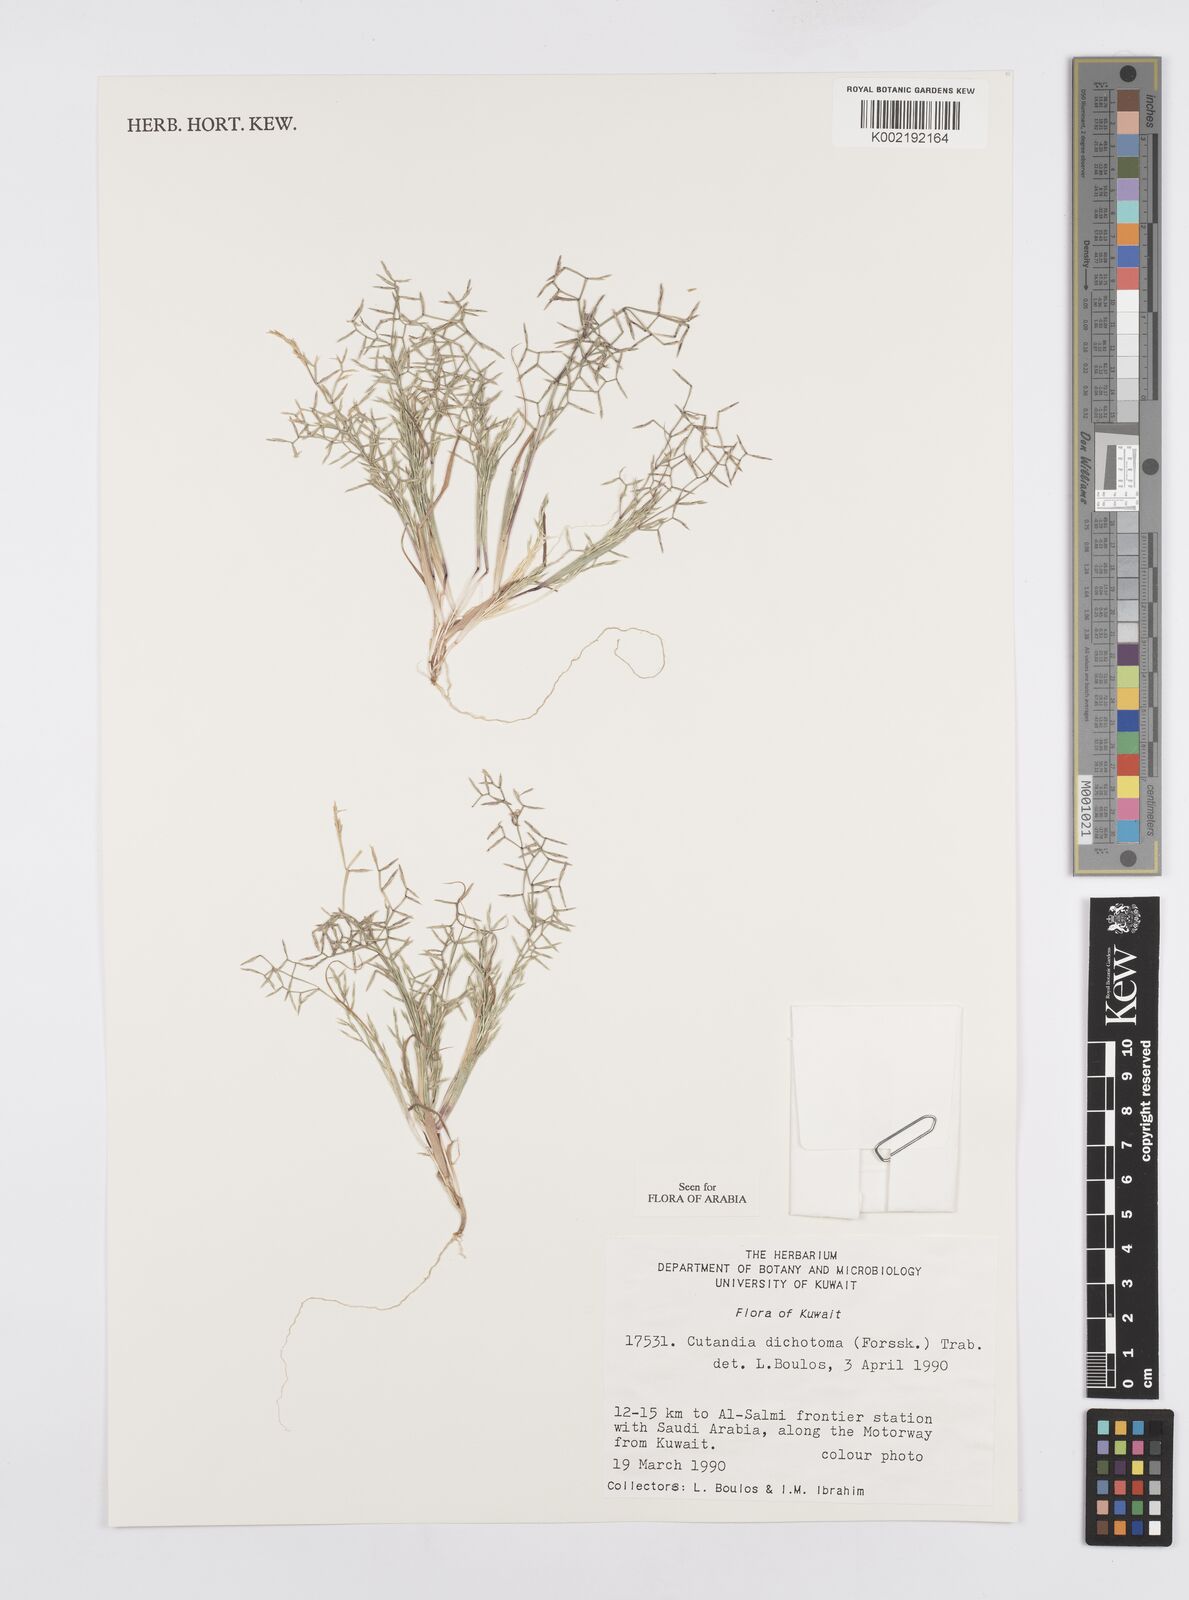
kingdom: Plantae
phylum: Tracheophyta
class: Liliopsida
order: Poales
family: Poaceae
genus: Cutandia
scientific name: Cutandia dichotoma
